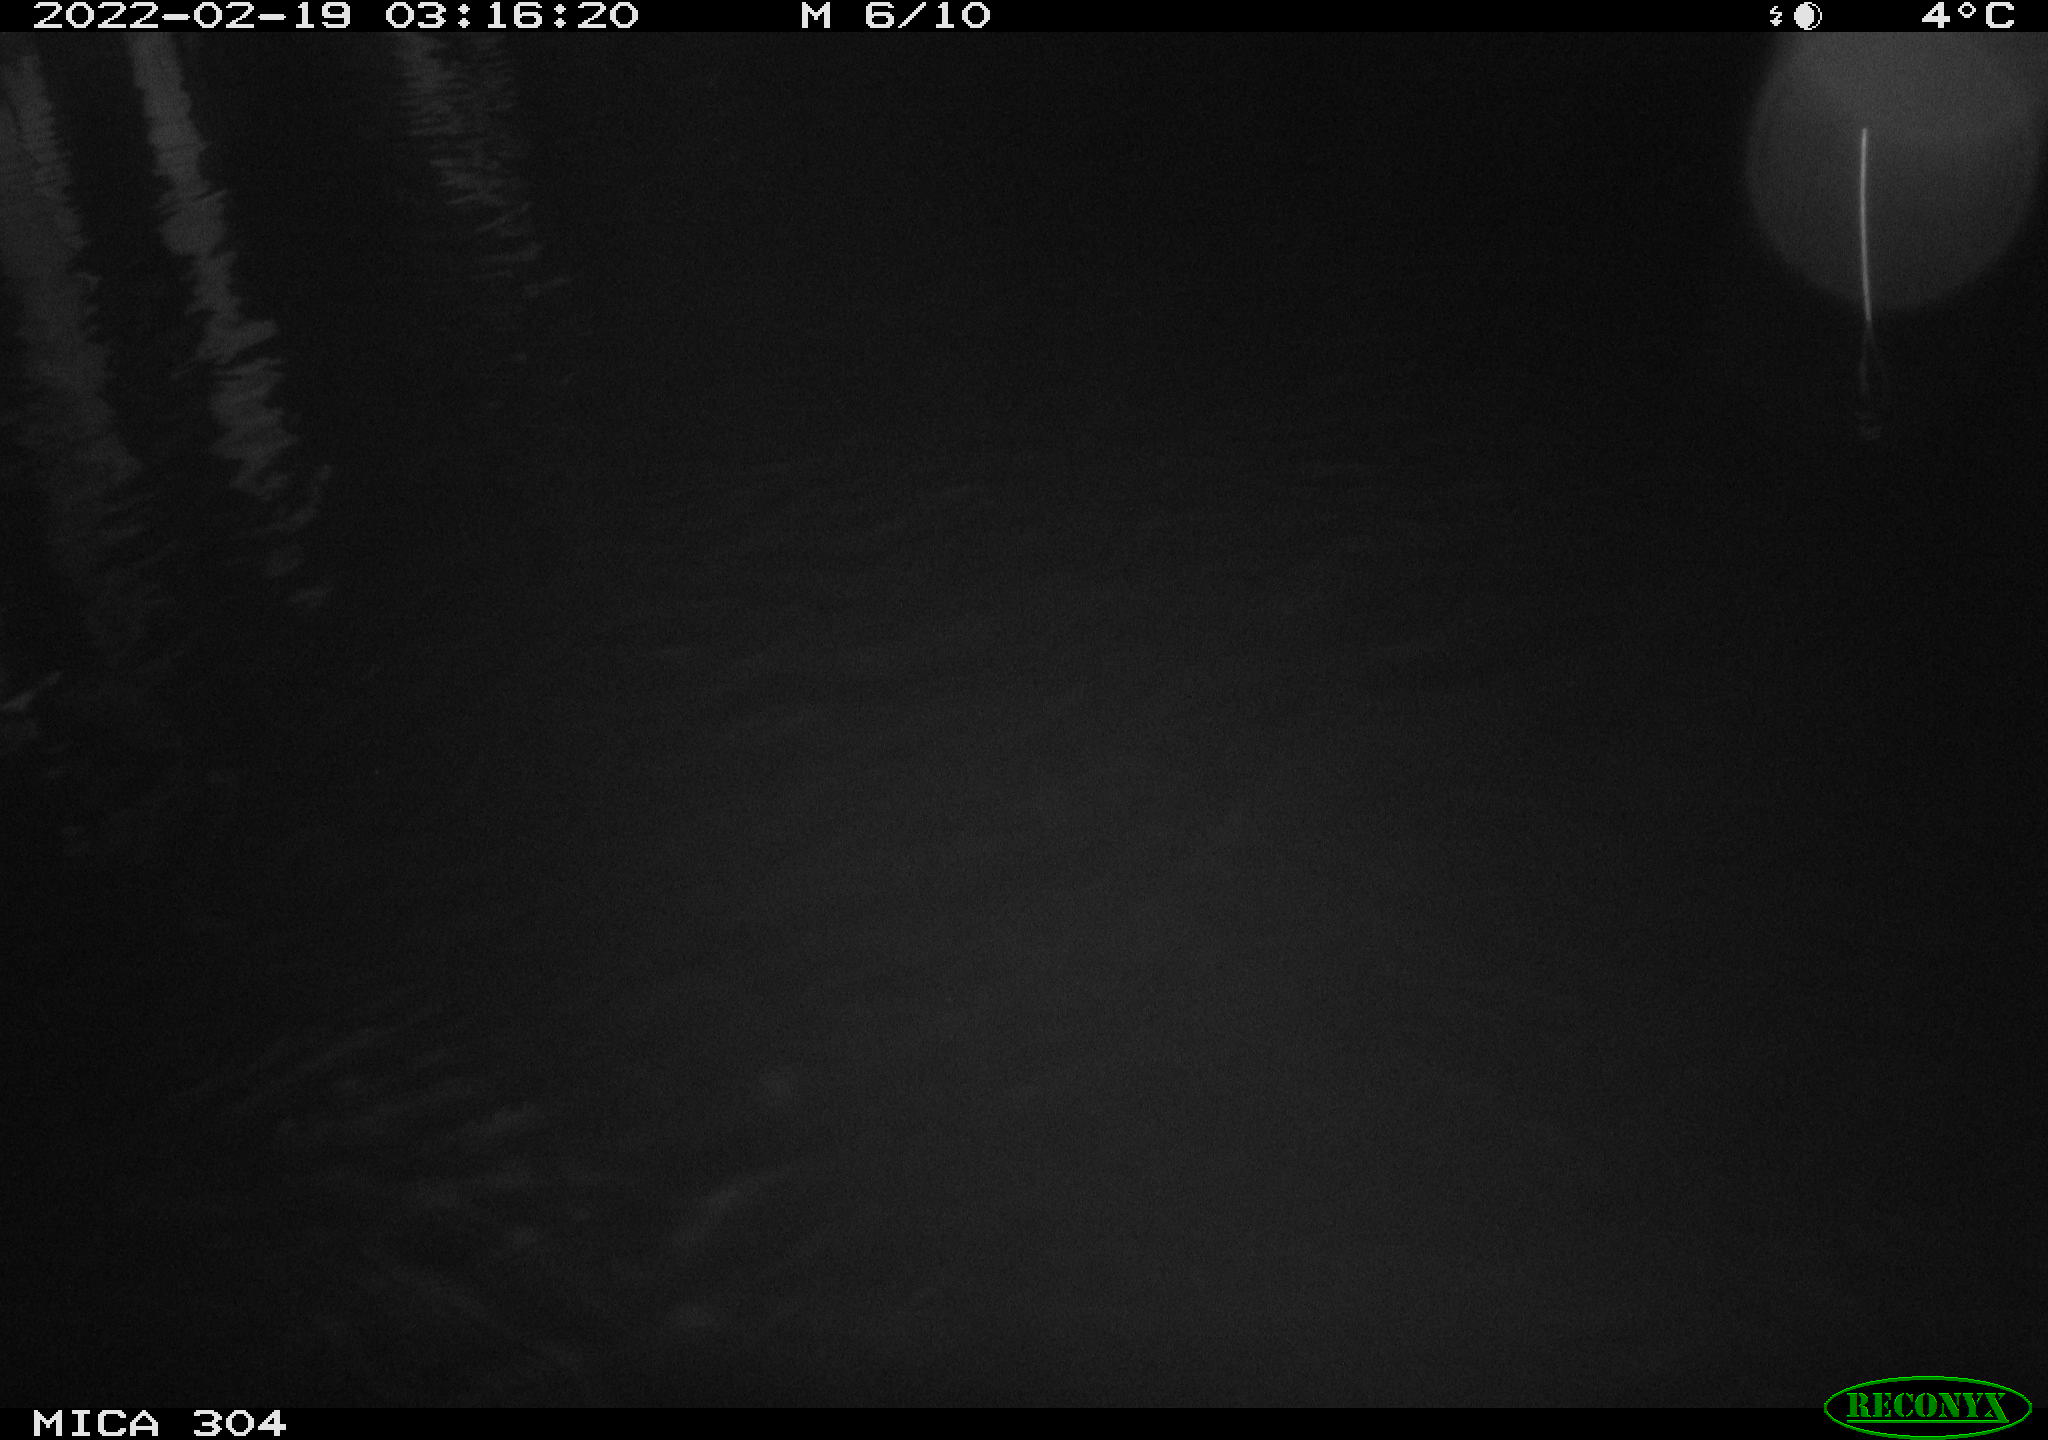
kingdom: Animalia
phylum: Chordata
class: Aves
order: Anseriformes
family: Anatidae
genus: Anas
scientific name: Anas platyrhynchos
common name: Mallard
